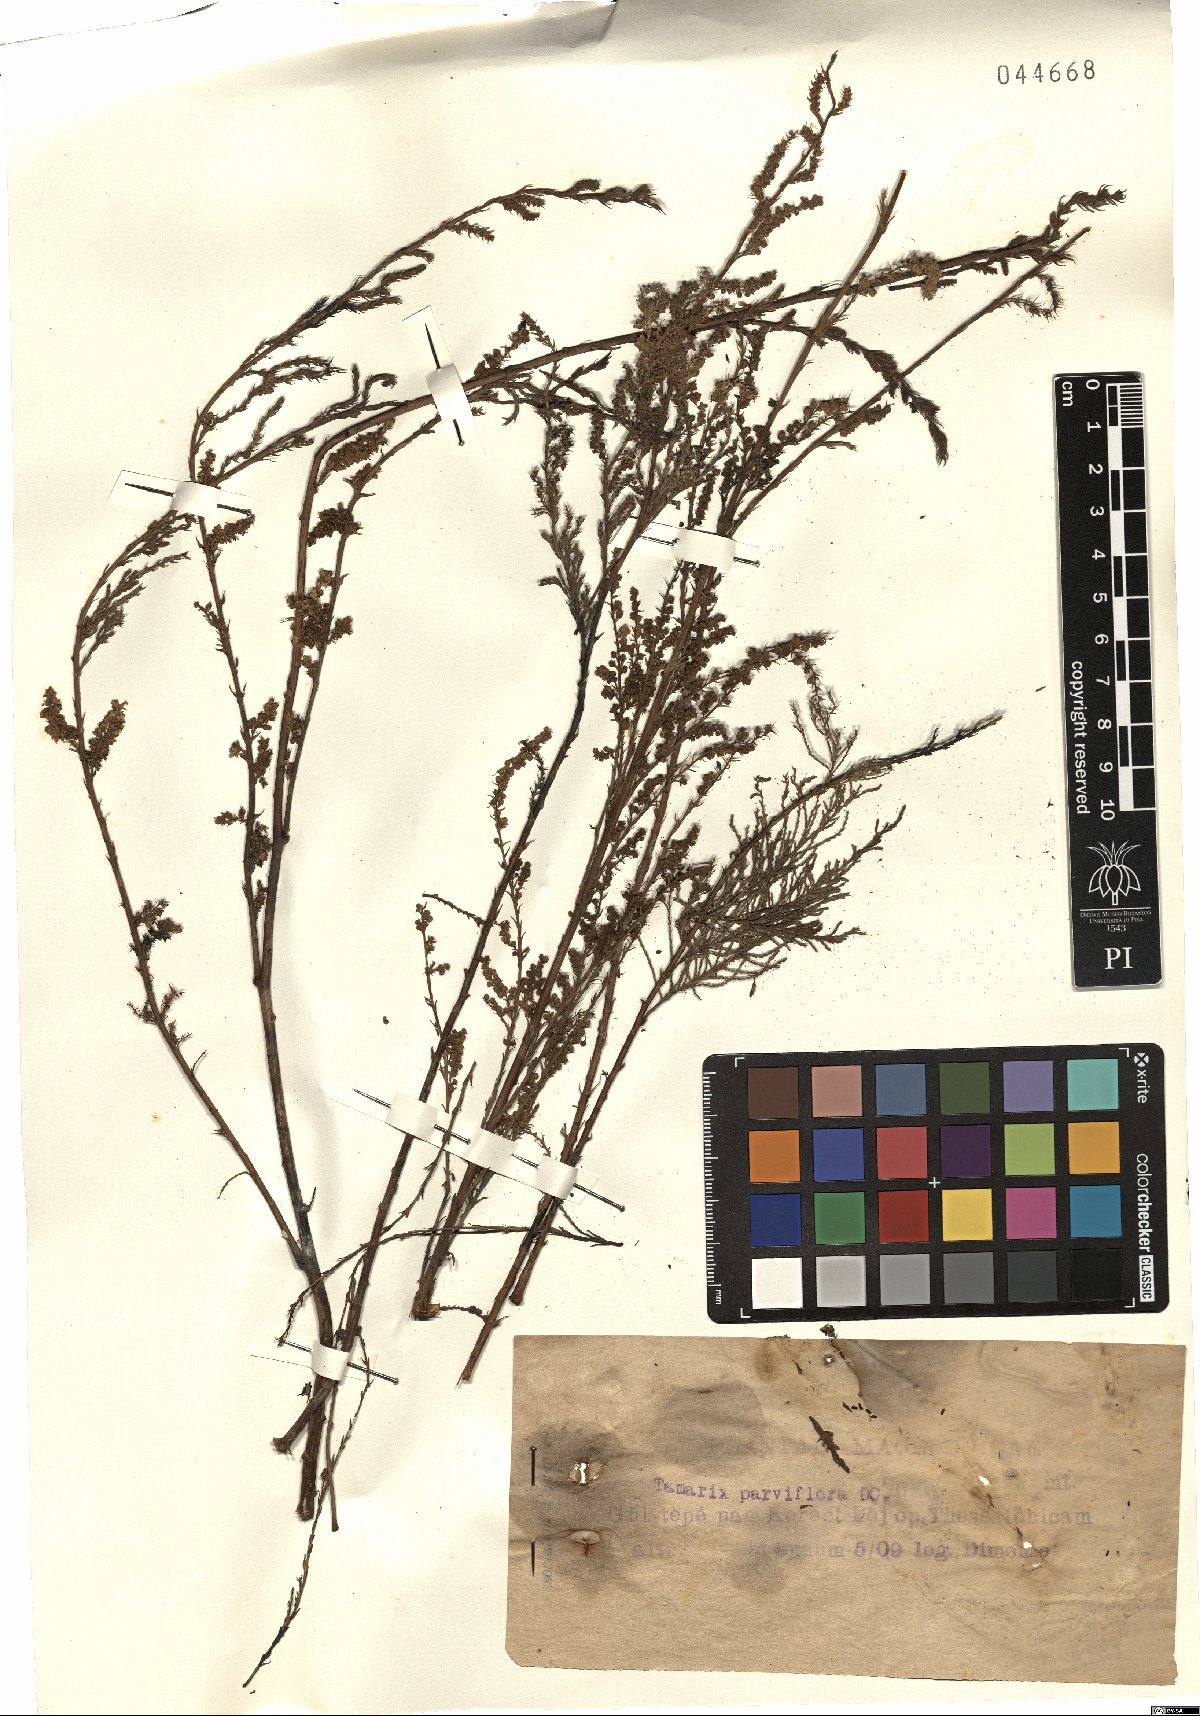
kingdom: Plantae
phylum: Tracheophyta
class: Magnoliopsida
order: Caryophyllales
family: Tamaricaceae
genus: Tamarix
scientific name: Tamarix parviflora
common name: Smallflower tamarisk
